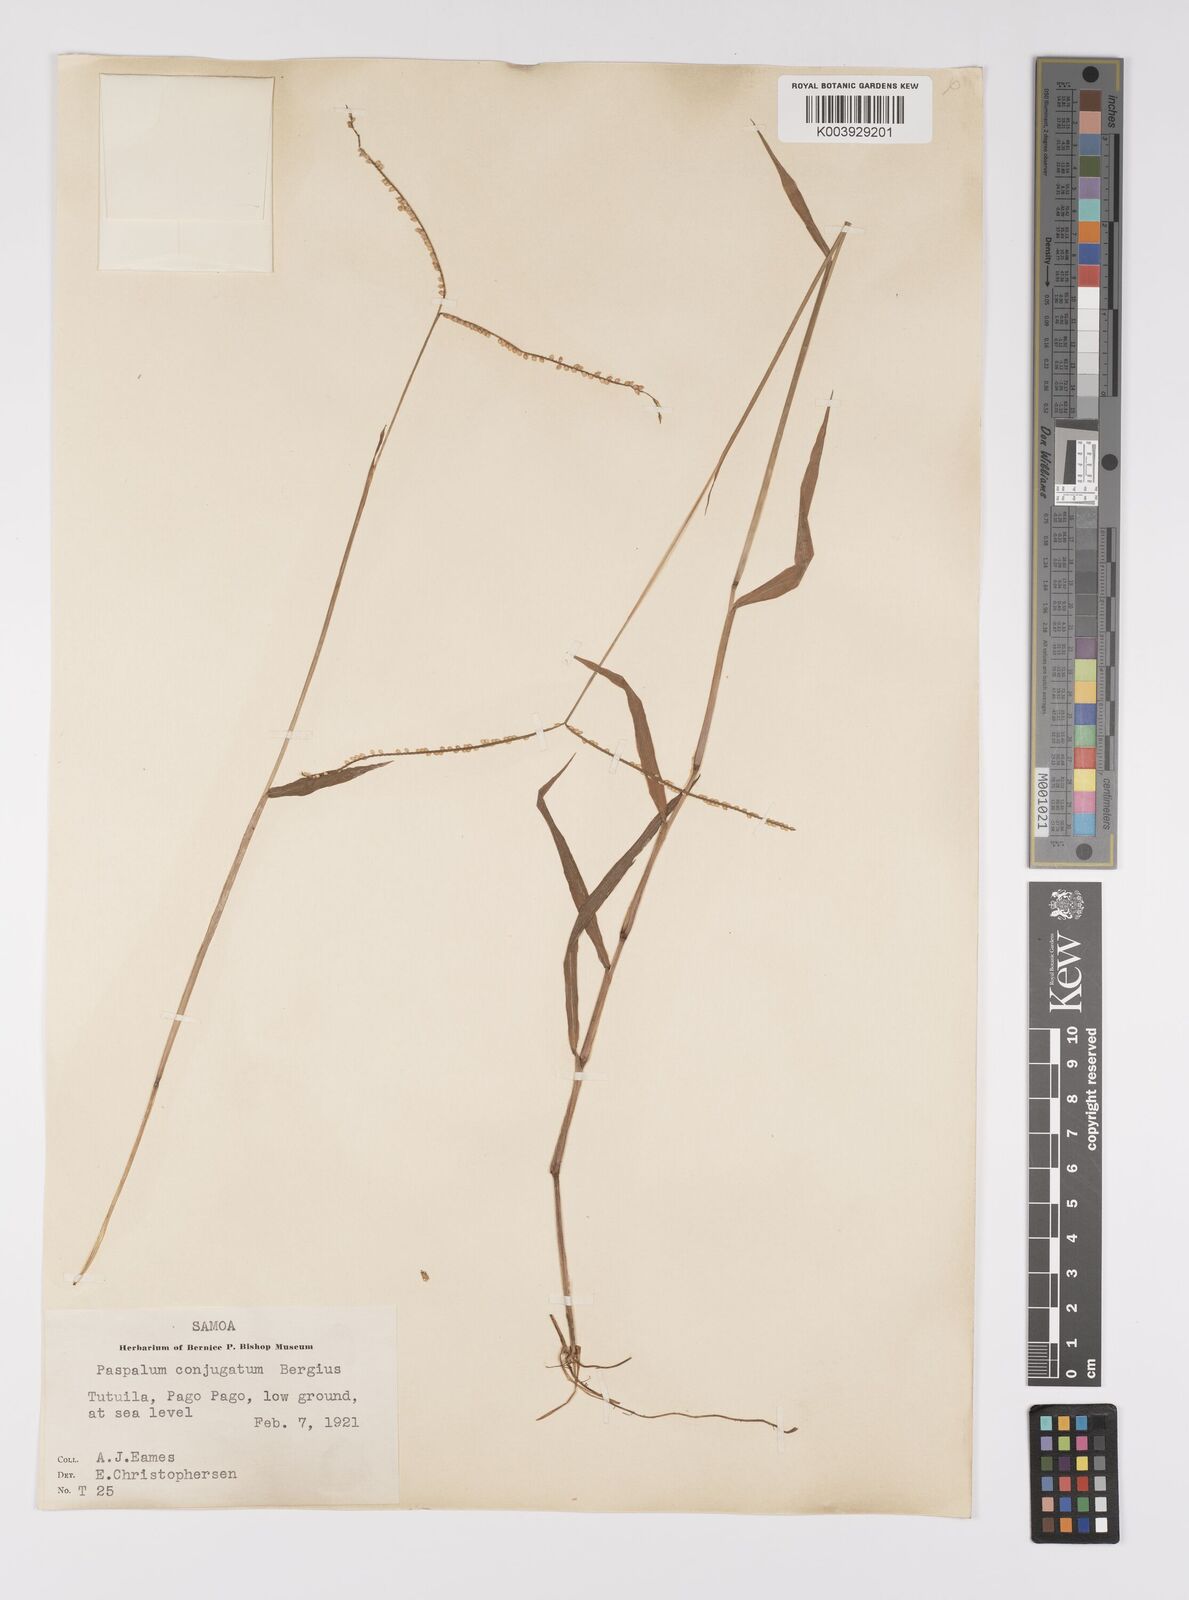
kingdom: Plantae
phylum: Tracheophyta
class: Liliopsida
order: Poales
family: Poaceae
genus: Paspalum
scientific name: Paspalum conjugatum
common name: Hilograss
